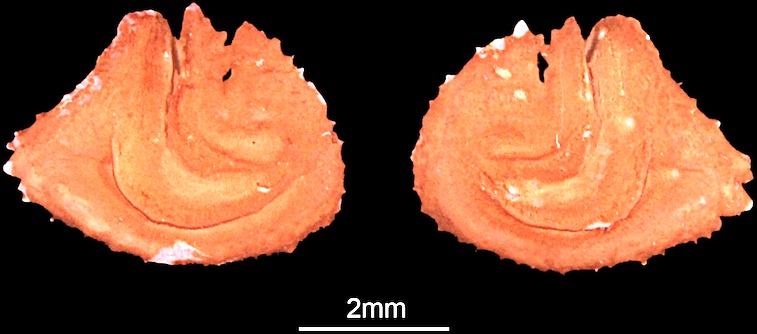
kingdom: Animalia
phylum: Chordata
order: Characiformes
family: Alestidae
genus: Alestes
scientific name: Alestes baremoze
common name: Characin
